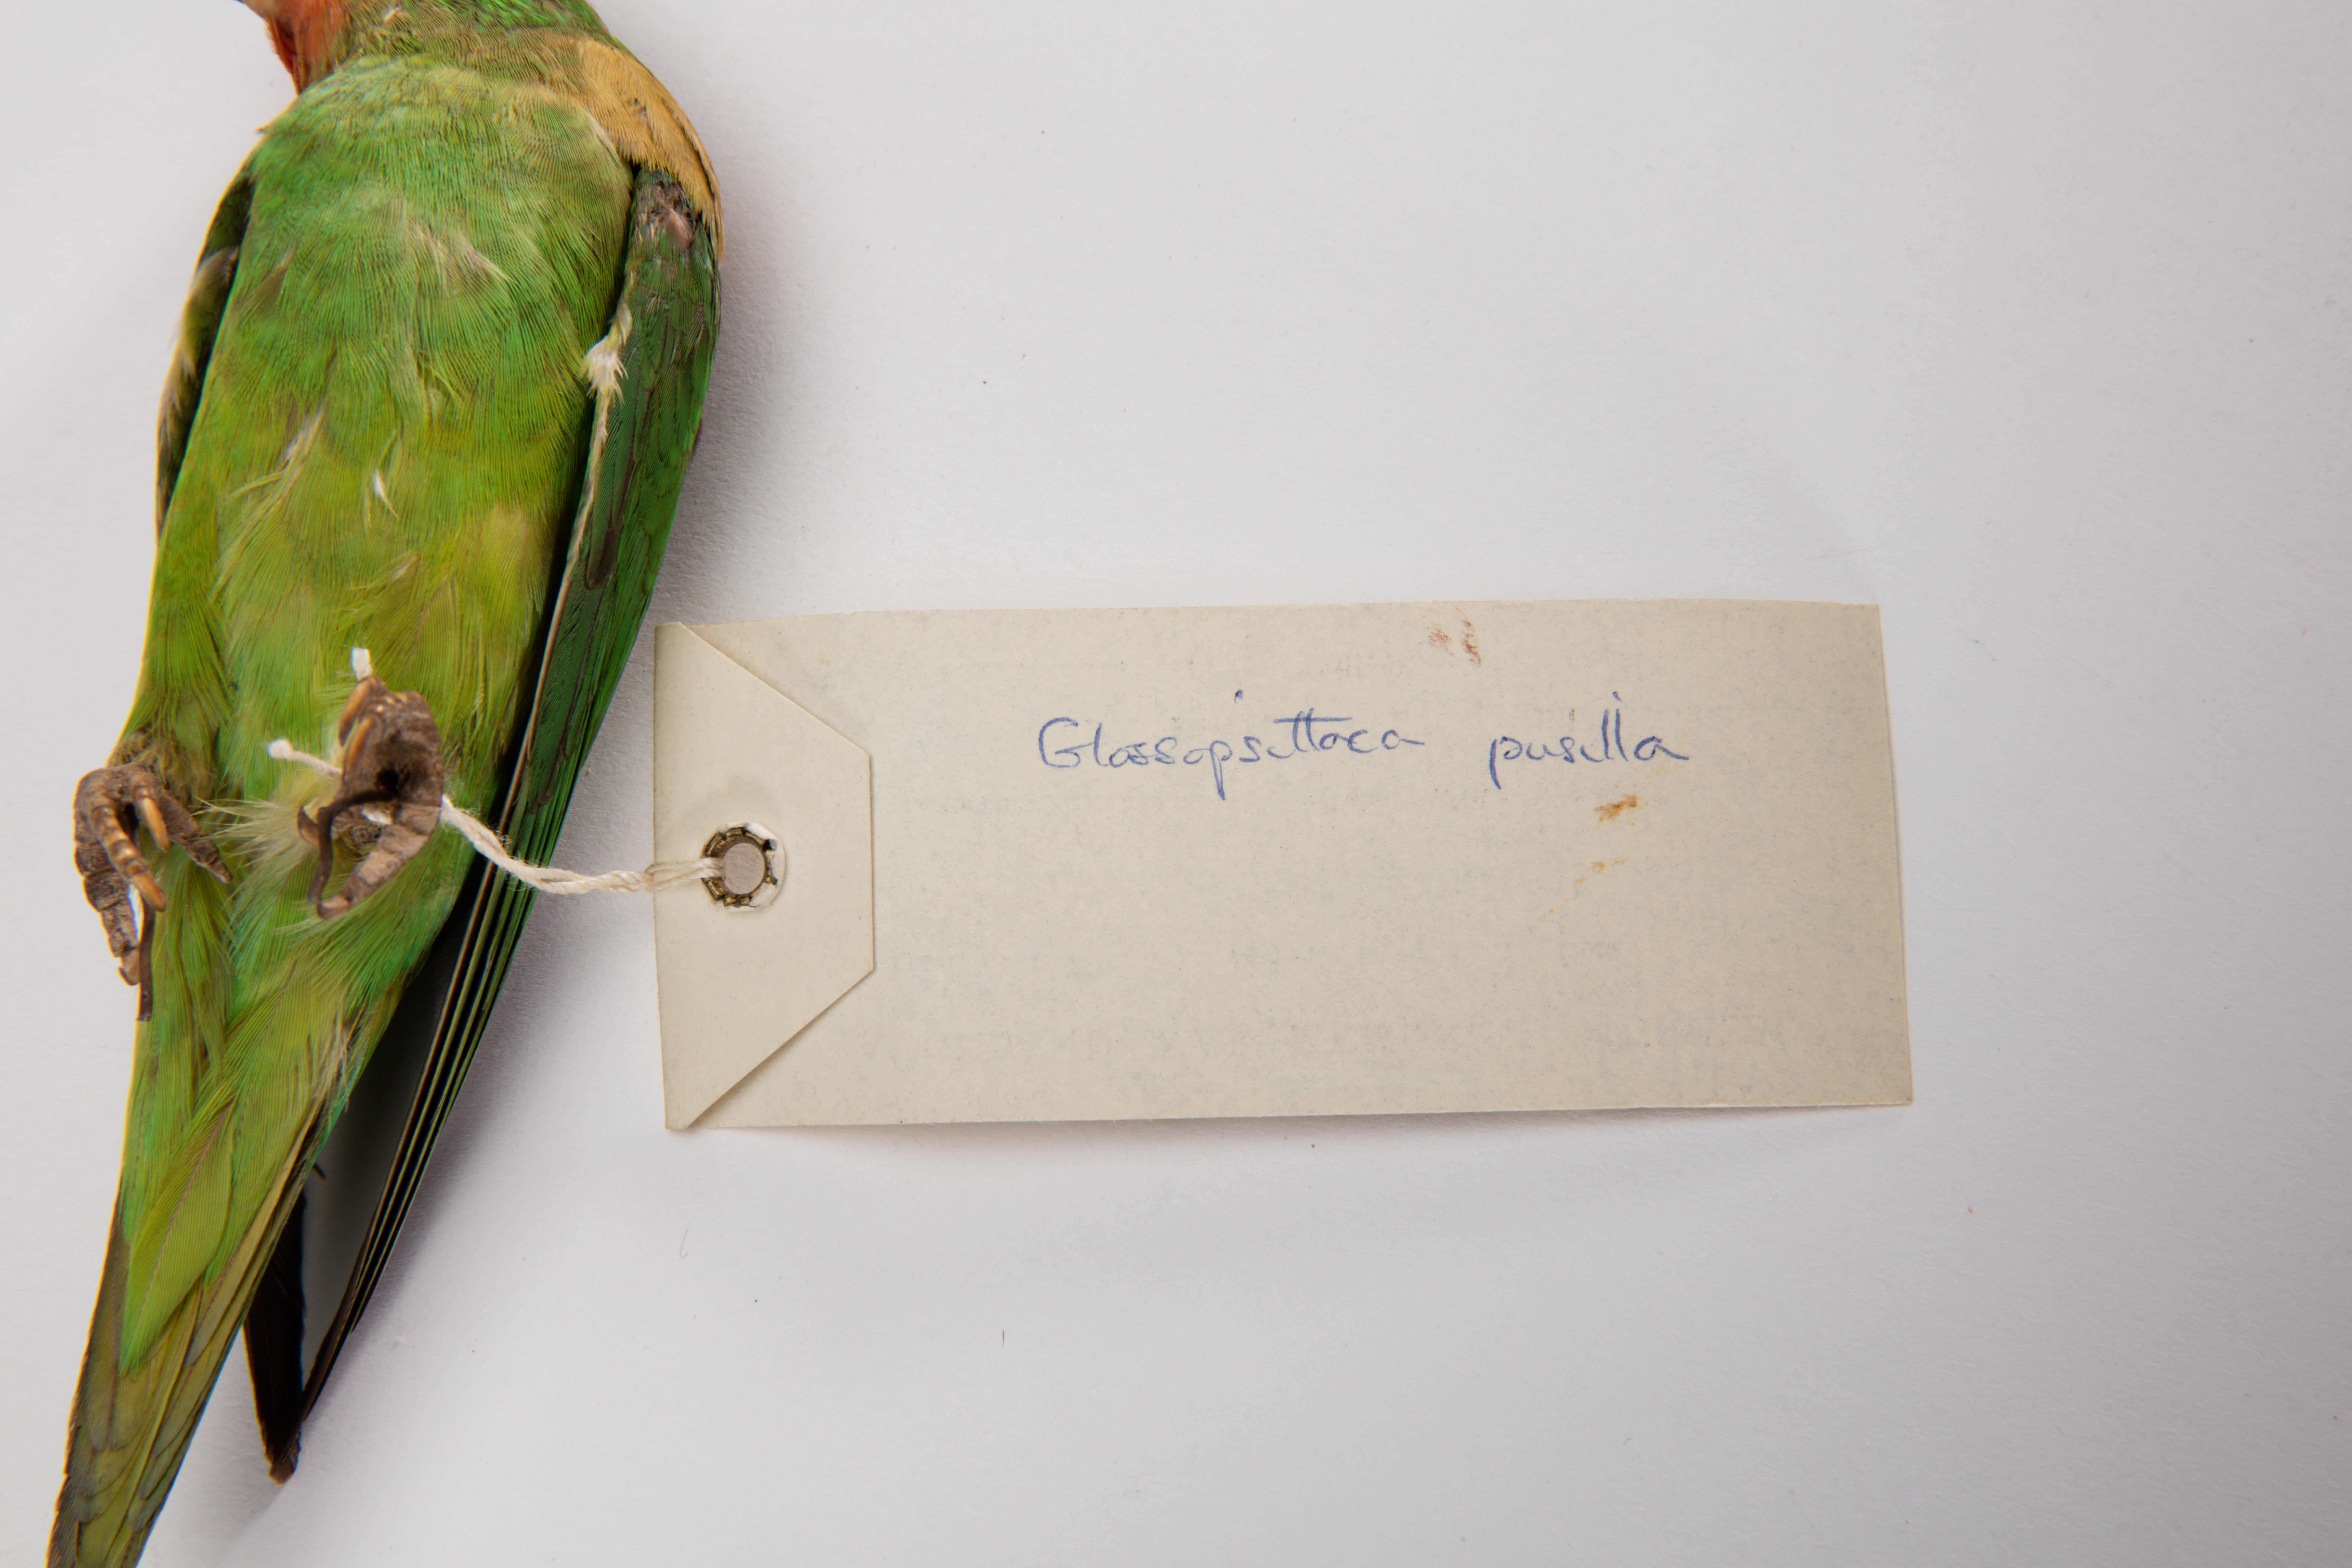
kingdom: Animalia
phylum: Chordata
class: Aves
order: Psittaciformes
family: Psittacidae
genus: Glossopsitta
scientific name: Glossopsitta pusilla
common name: Little lorikeet
